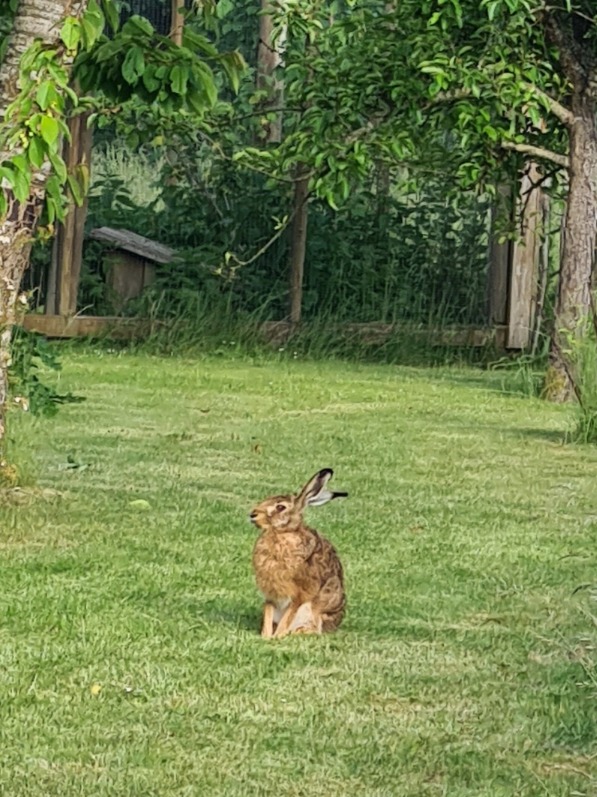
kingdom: Animalia
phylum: Chordata
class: Mammalia
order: Lagomorpha
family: Leporidae
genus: Lepus
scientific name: Lepus europaeus
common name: Hare
